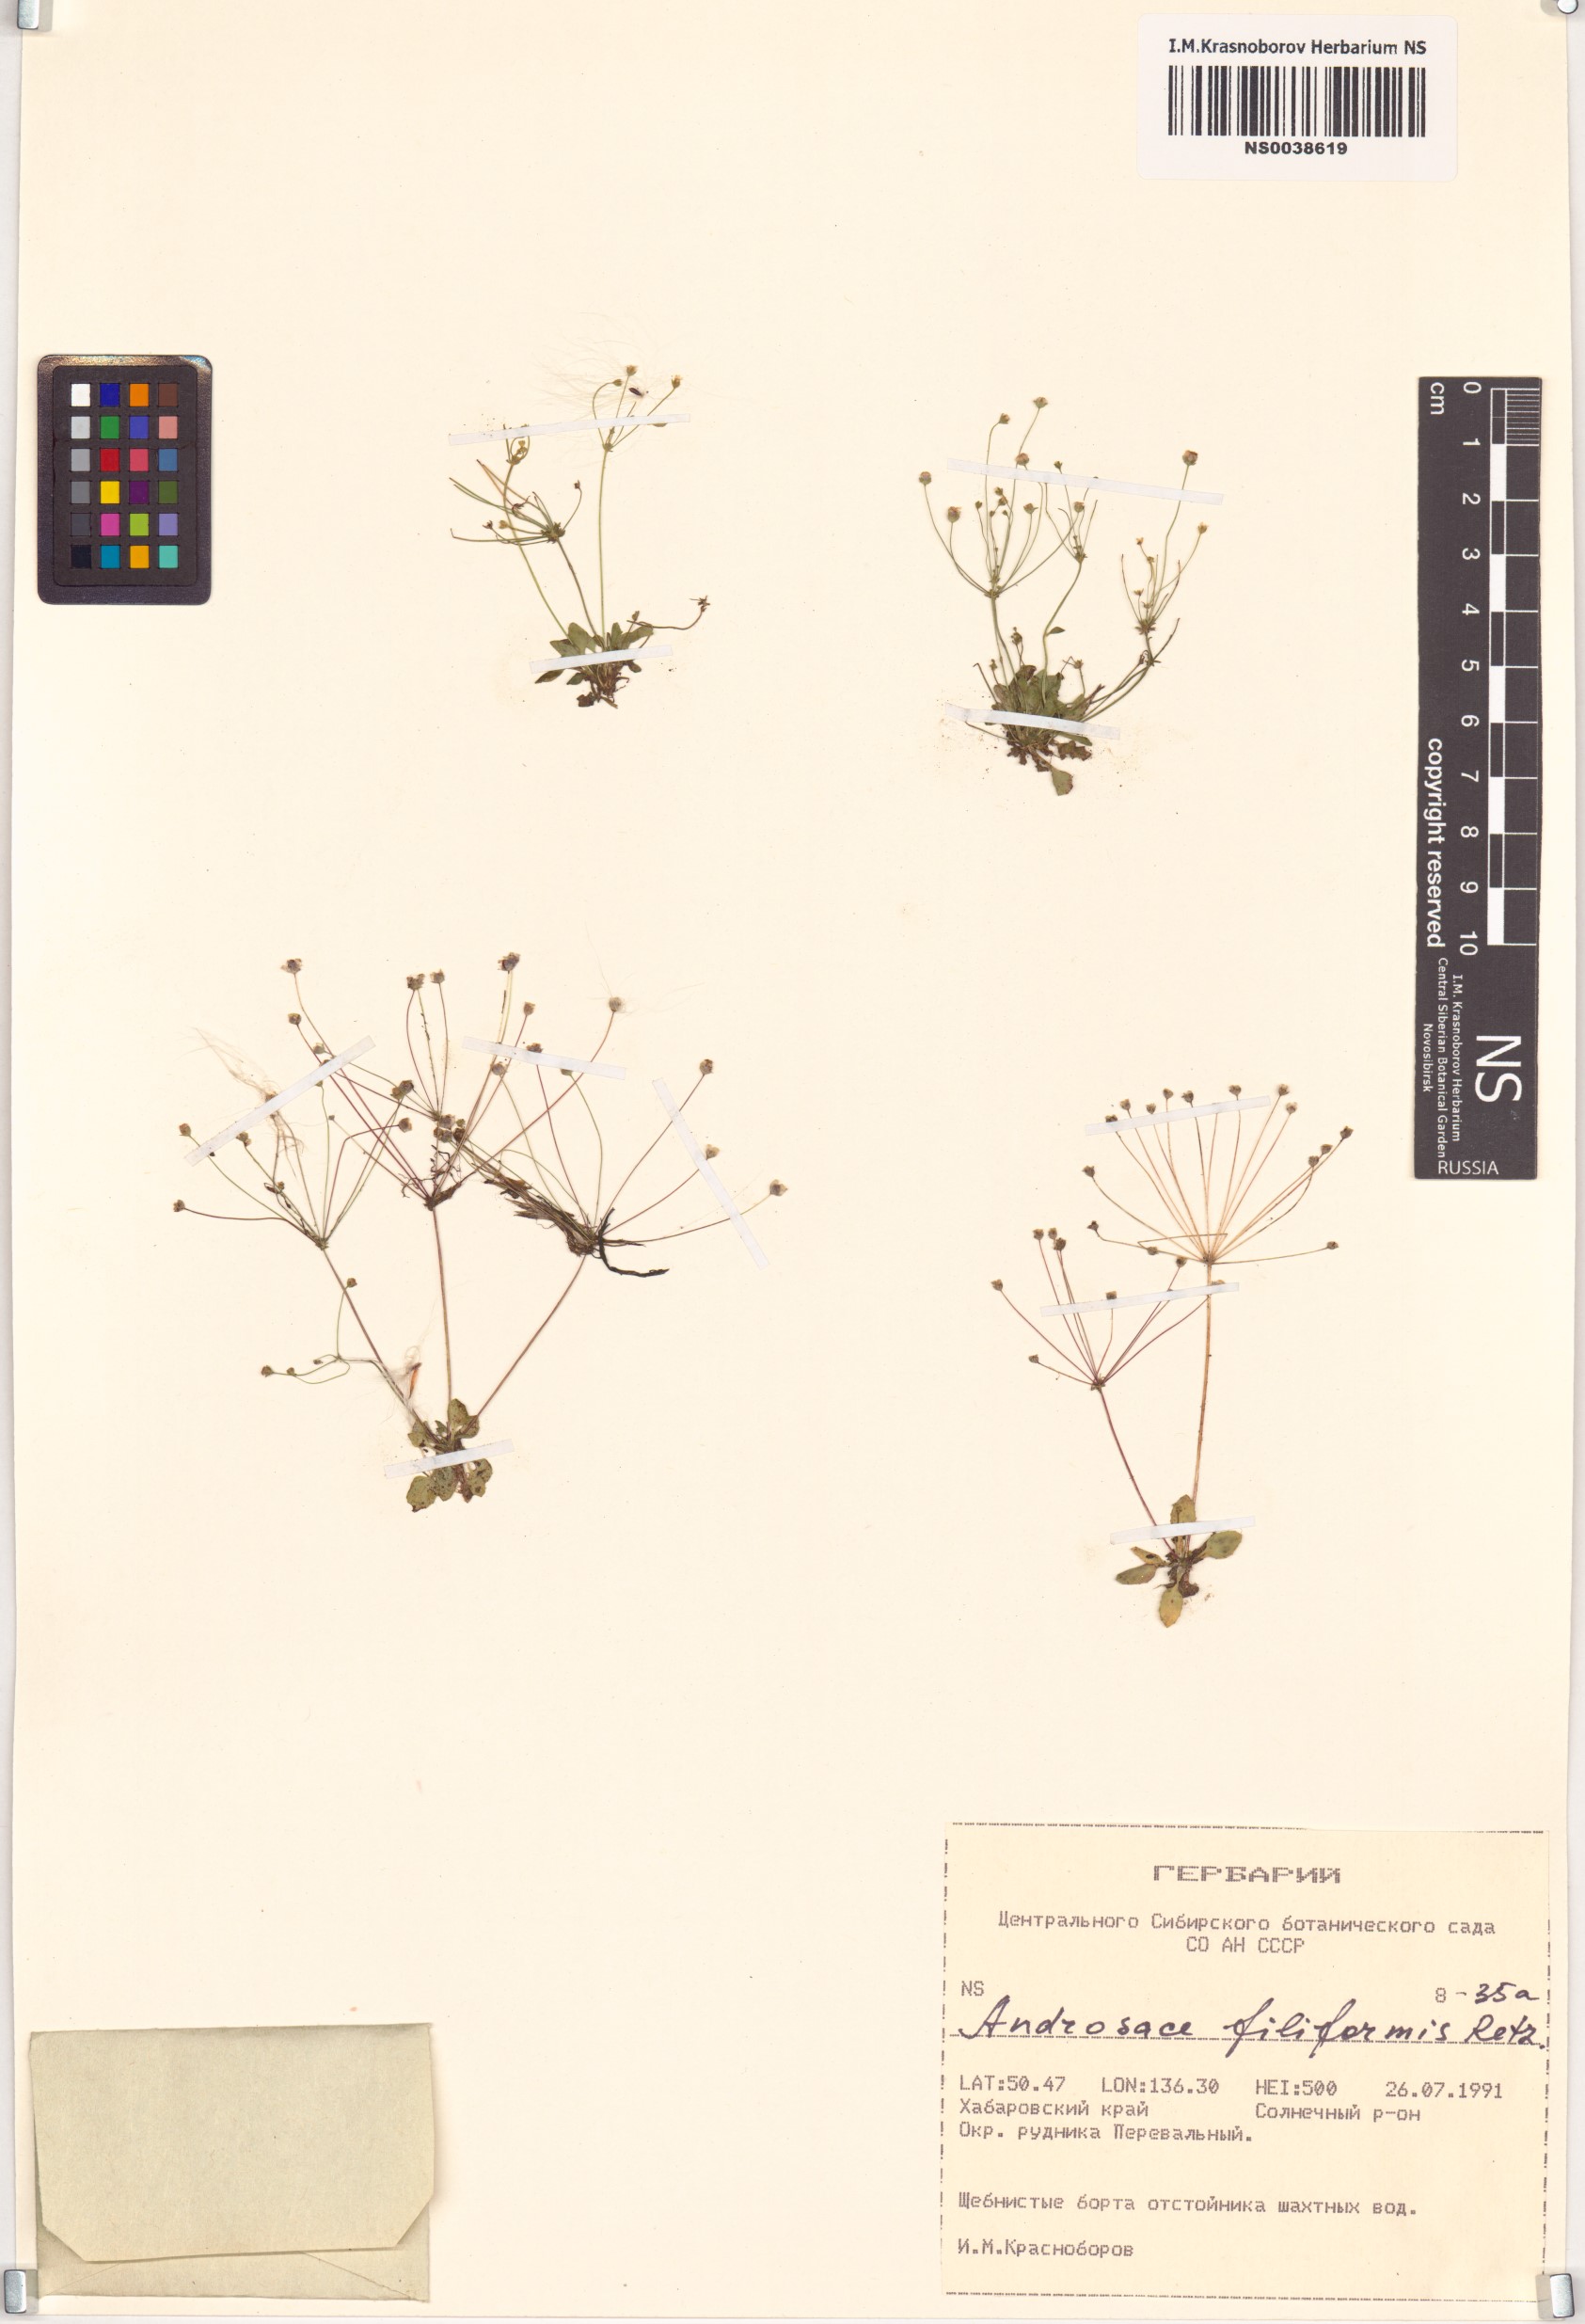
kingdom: Plantae
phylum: Tracheophyta
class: Magnoliopsida
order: Ericales
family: Primulaceae
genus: Androsace
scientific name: Androsace filiformis
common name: Filiform rock jasmine
